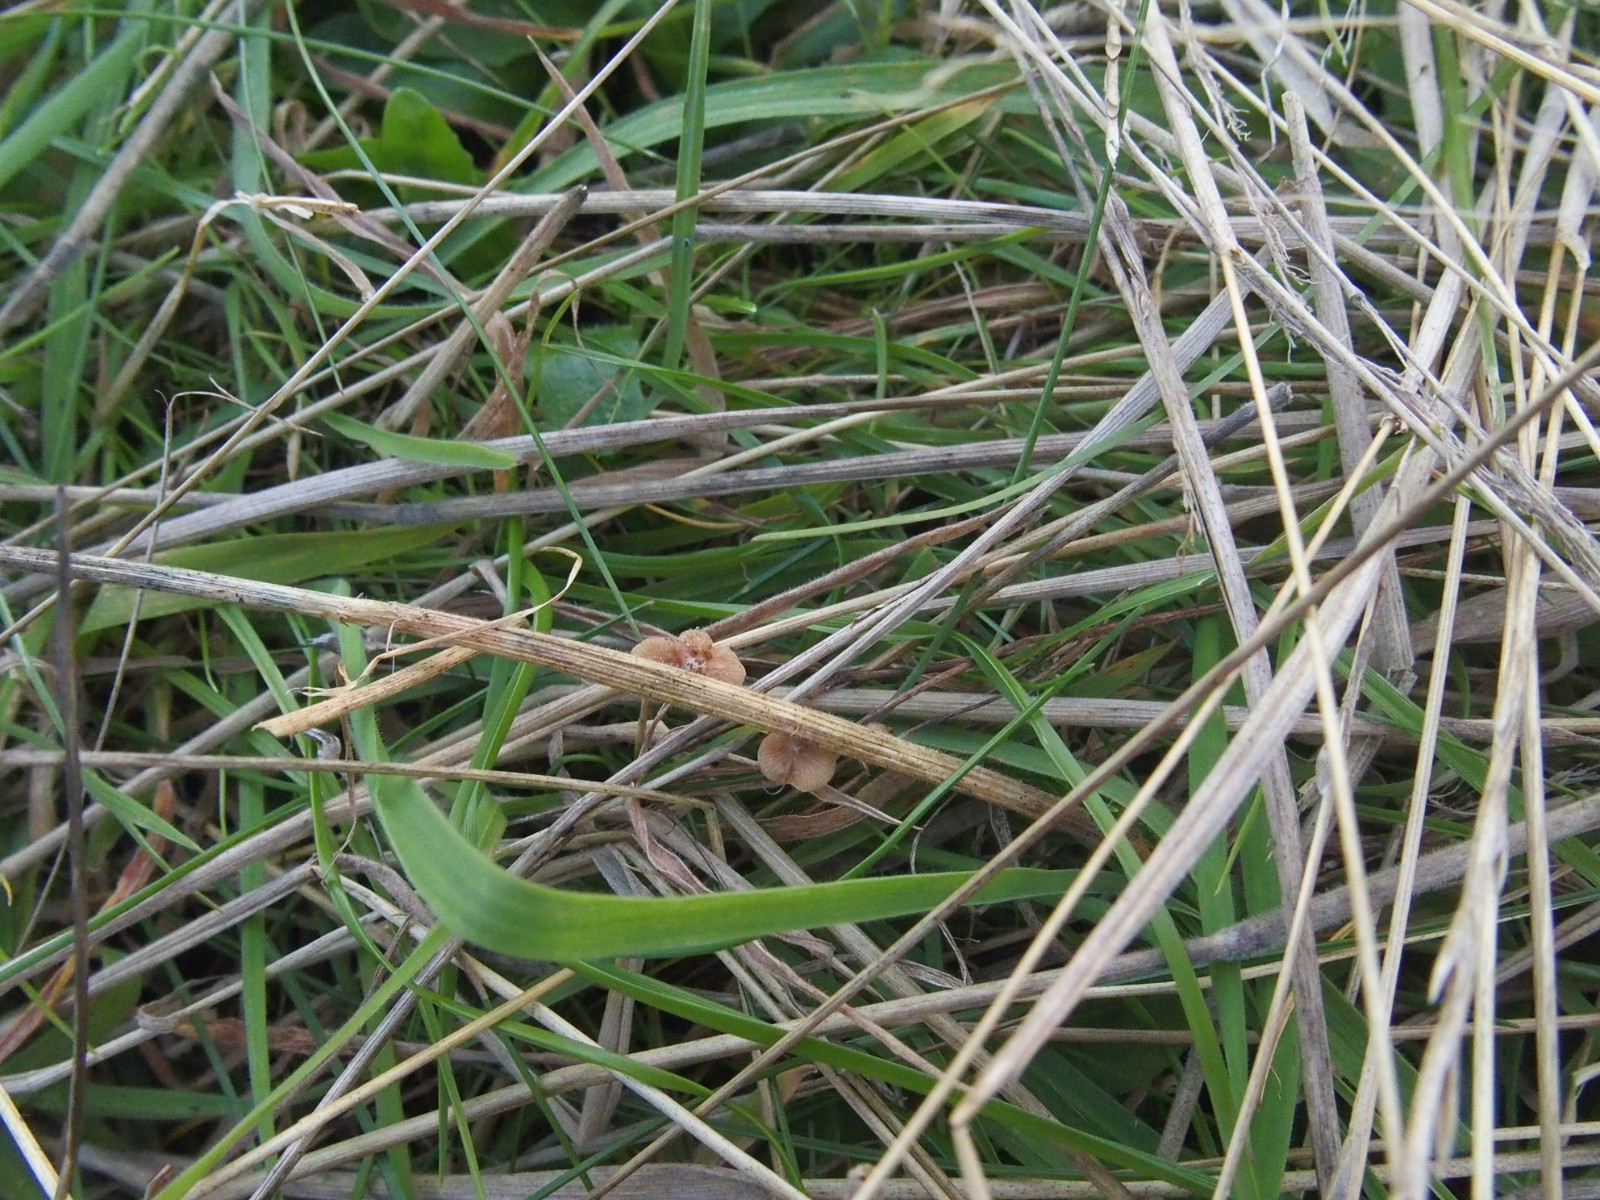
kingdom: Fungi
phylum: Basidiomycota
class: Agaricomycetes
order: Agaricales
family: Strophariaceae
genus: Deconica
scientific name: Deconica phillipsii
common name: almindelig stråhat
